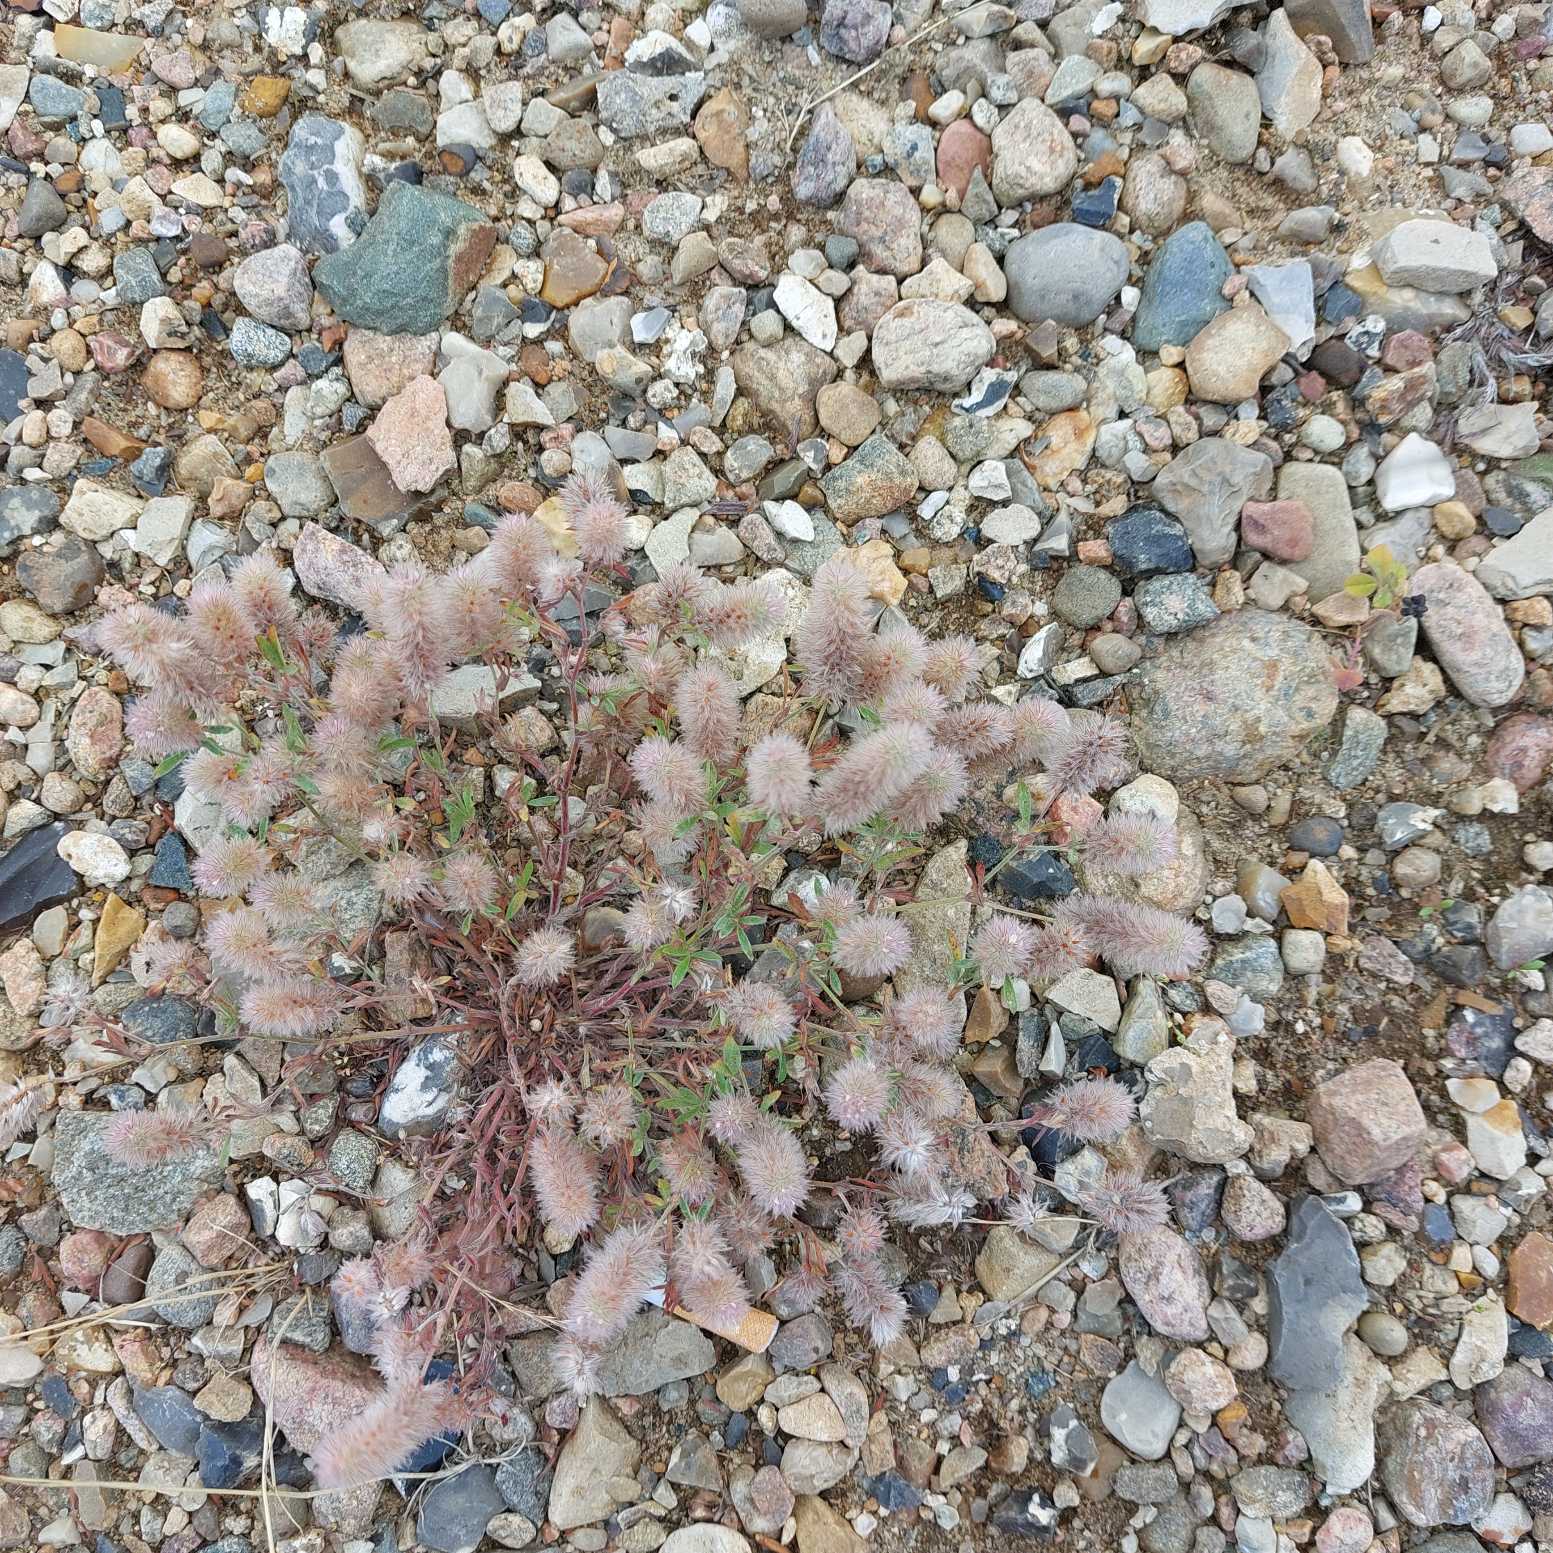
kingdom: Plantae
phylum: Tracheophyta
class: Magnoliopsida
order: Fabales
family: Fabaceae
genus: Trifolium
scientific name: Trifolium arvense
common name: Hare-kløver
